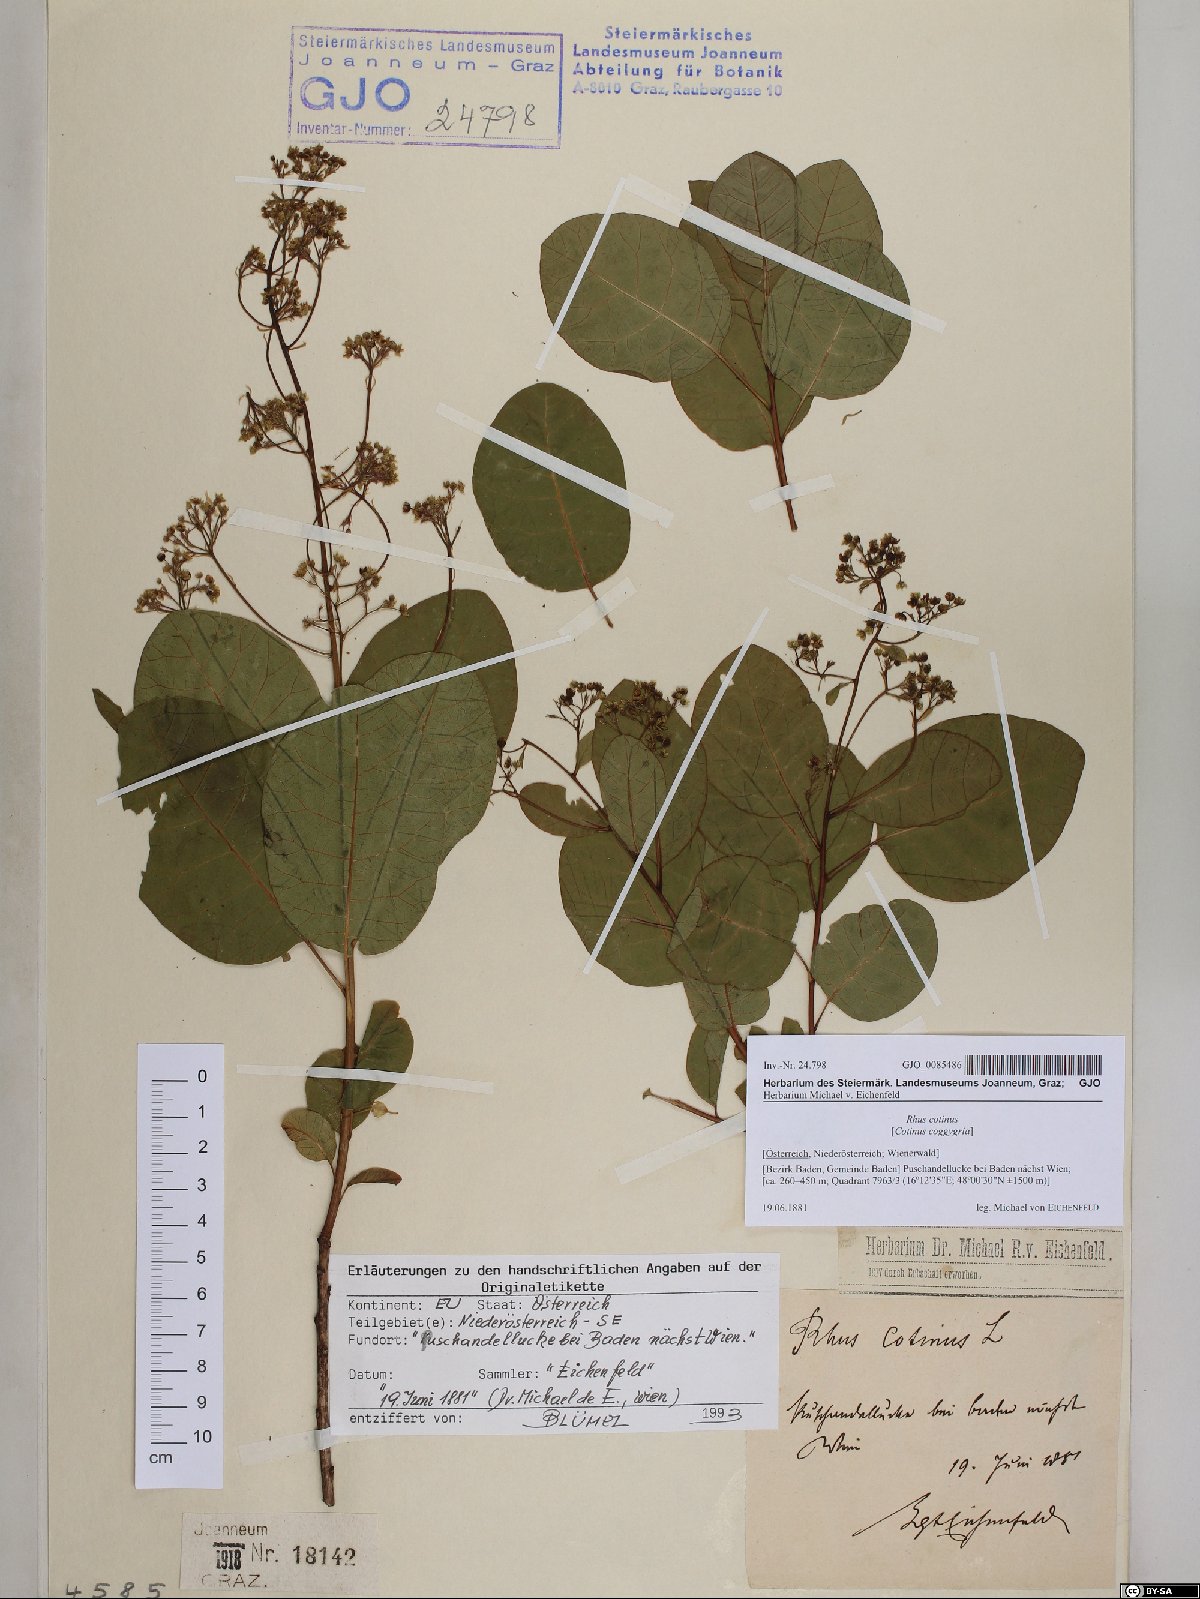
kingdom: Plantae
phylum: Tracheophyta
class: Magnoliopsida
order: Sapindales
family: Anacardiaceae
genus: Cotinus
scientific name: Cotinus coggygria
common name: Smoke-tree
